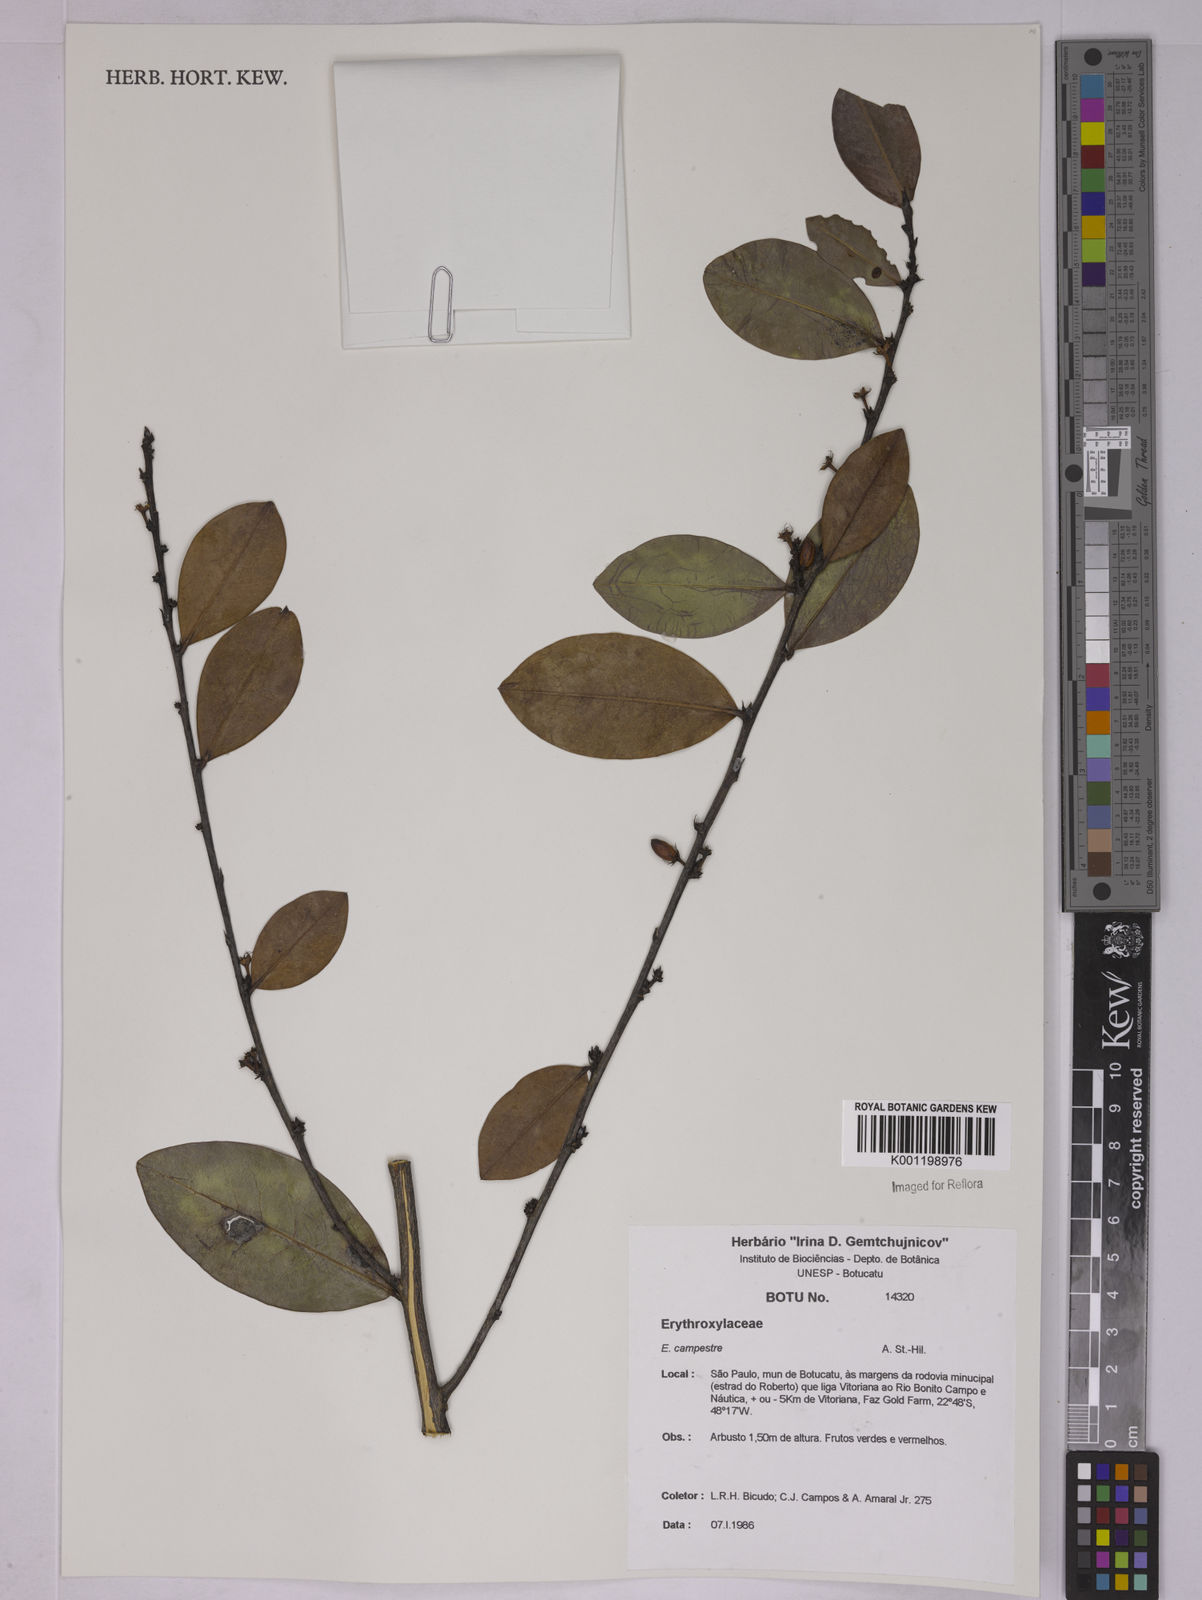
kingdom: Plantae
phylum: Tracheophyta
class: Magnoliopsida
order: Malpighiales
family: Erythroxylaceae
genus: Erythroxylum
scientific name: Erythroxylum campestre
